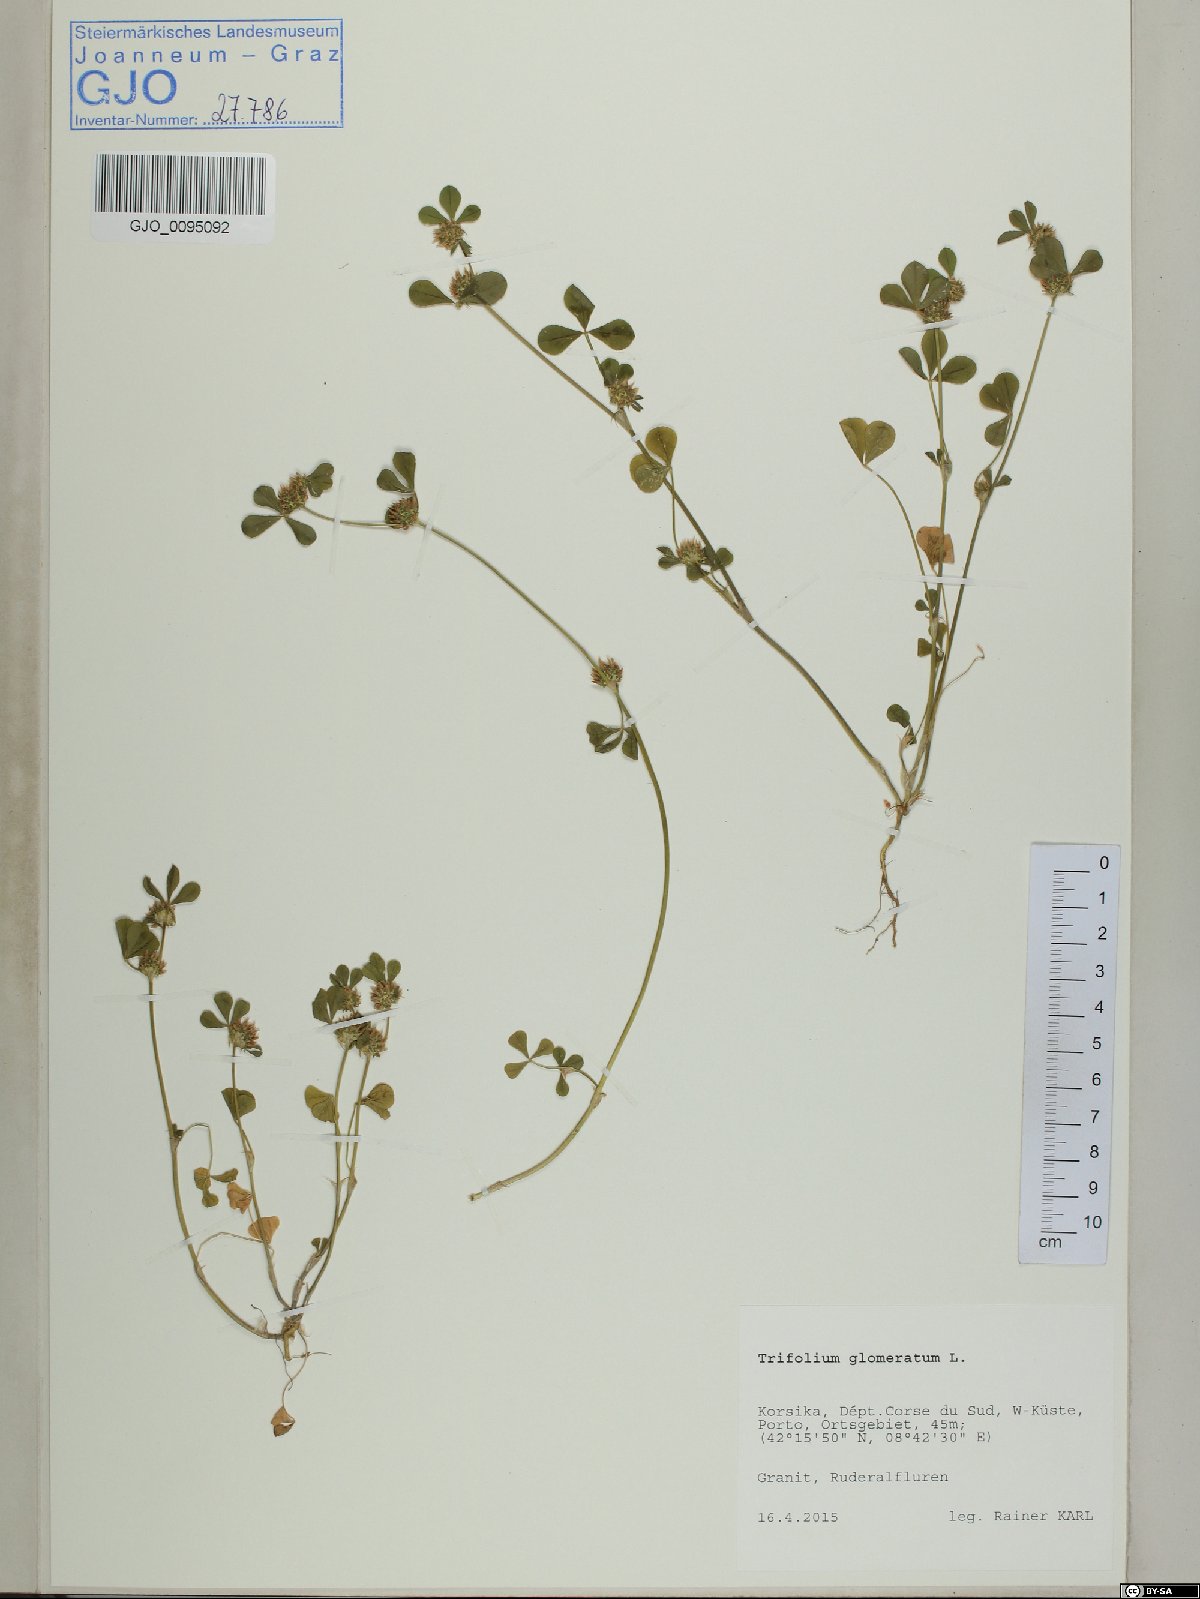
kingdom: Plantae
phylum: Tracheophyta
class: Magnoliopsida
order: Fabales
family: Fabaceae
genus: Trifolium
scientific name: Trifolium glomeratum
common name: Clustered clover
